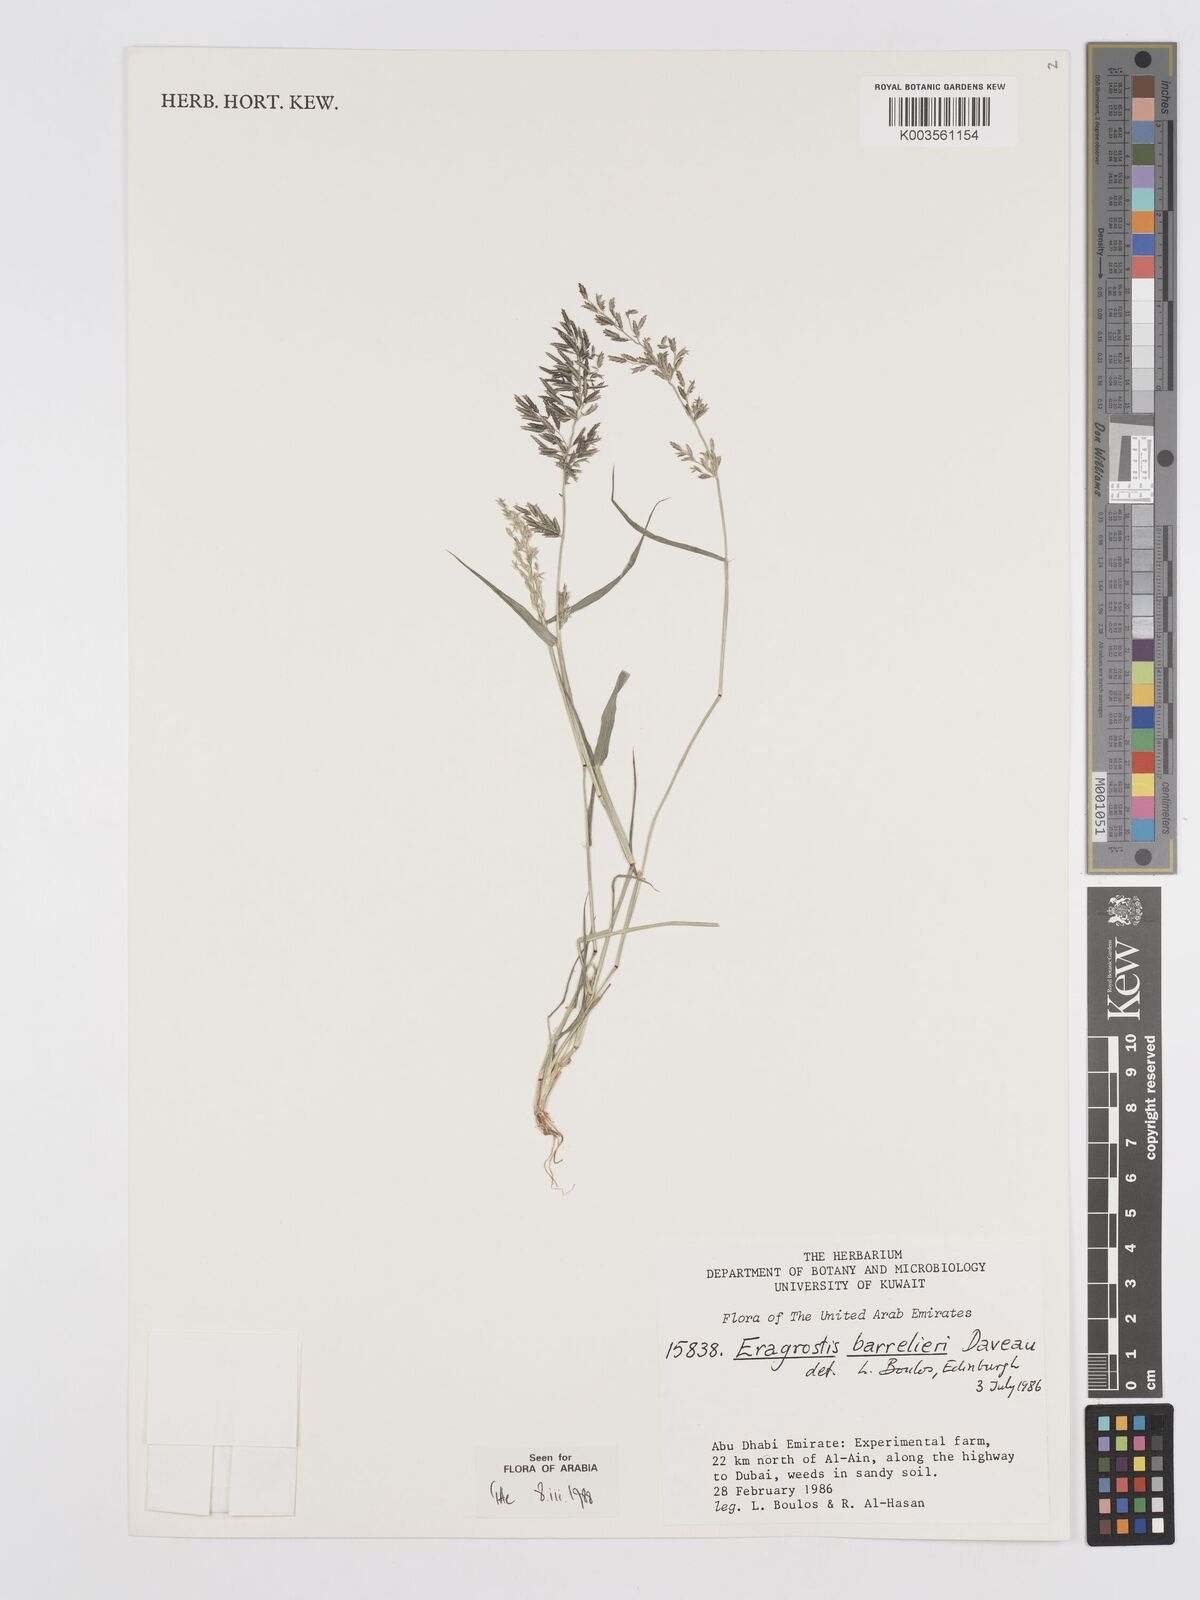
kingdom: Plantae
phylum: Tracheophyta
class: Liliopsida
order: Poales
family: Poaceae
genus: Eragrostis
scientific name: Eragrostis barrelieri
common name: Mediterranean lovegrass
